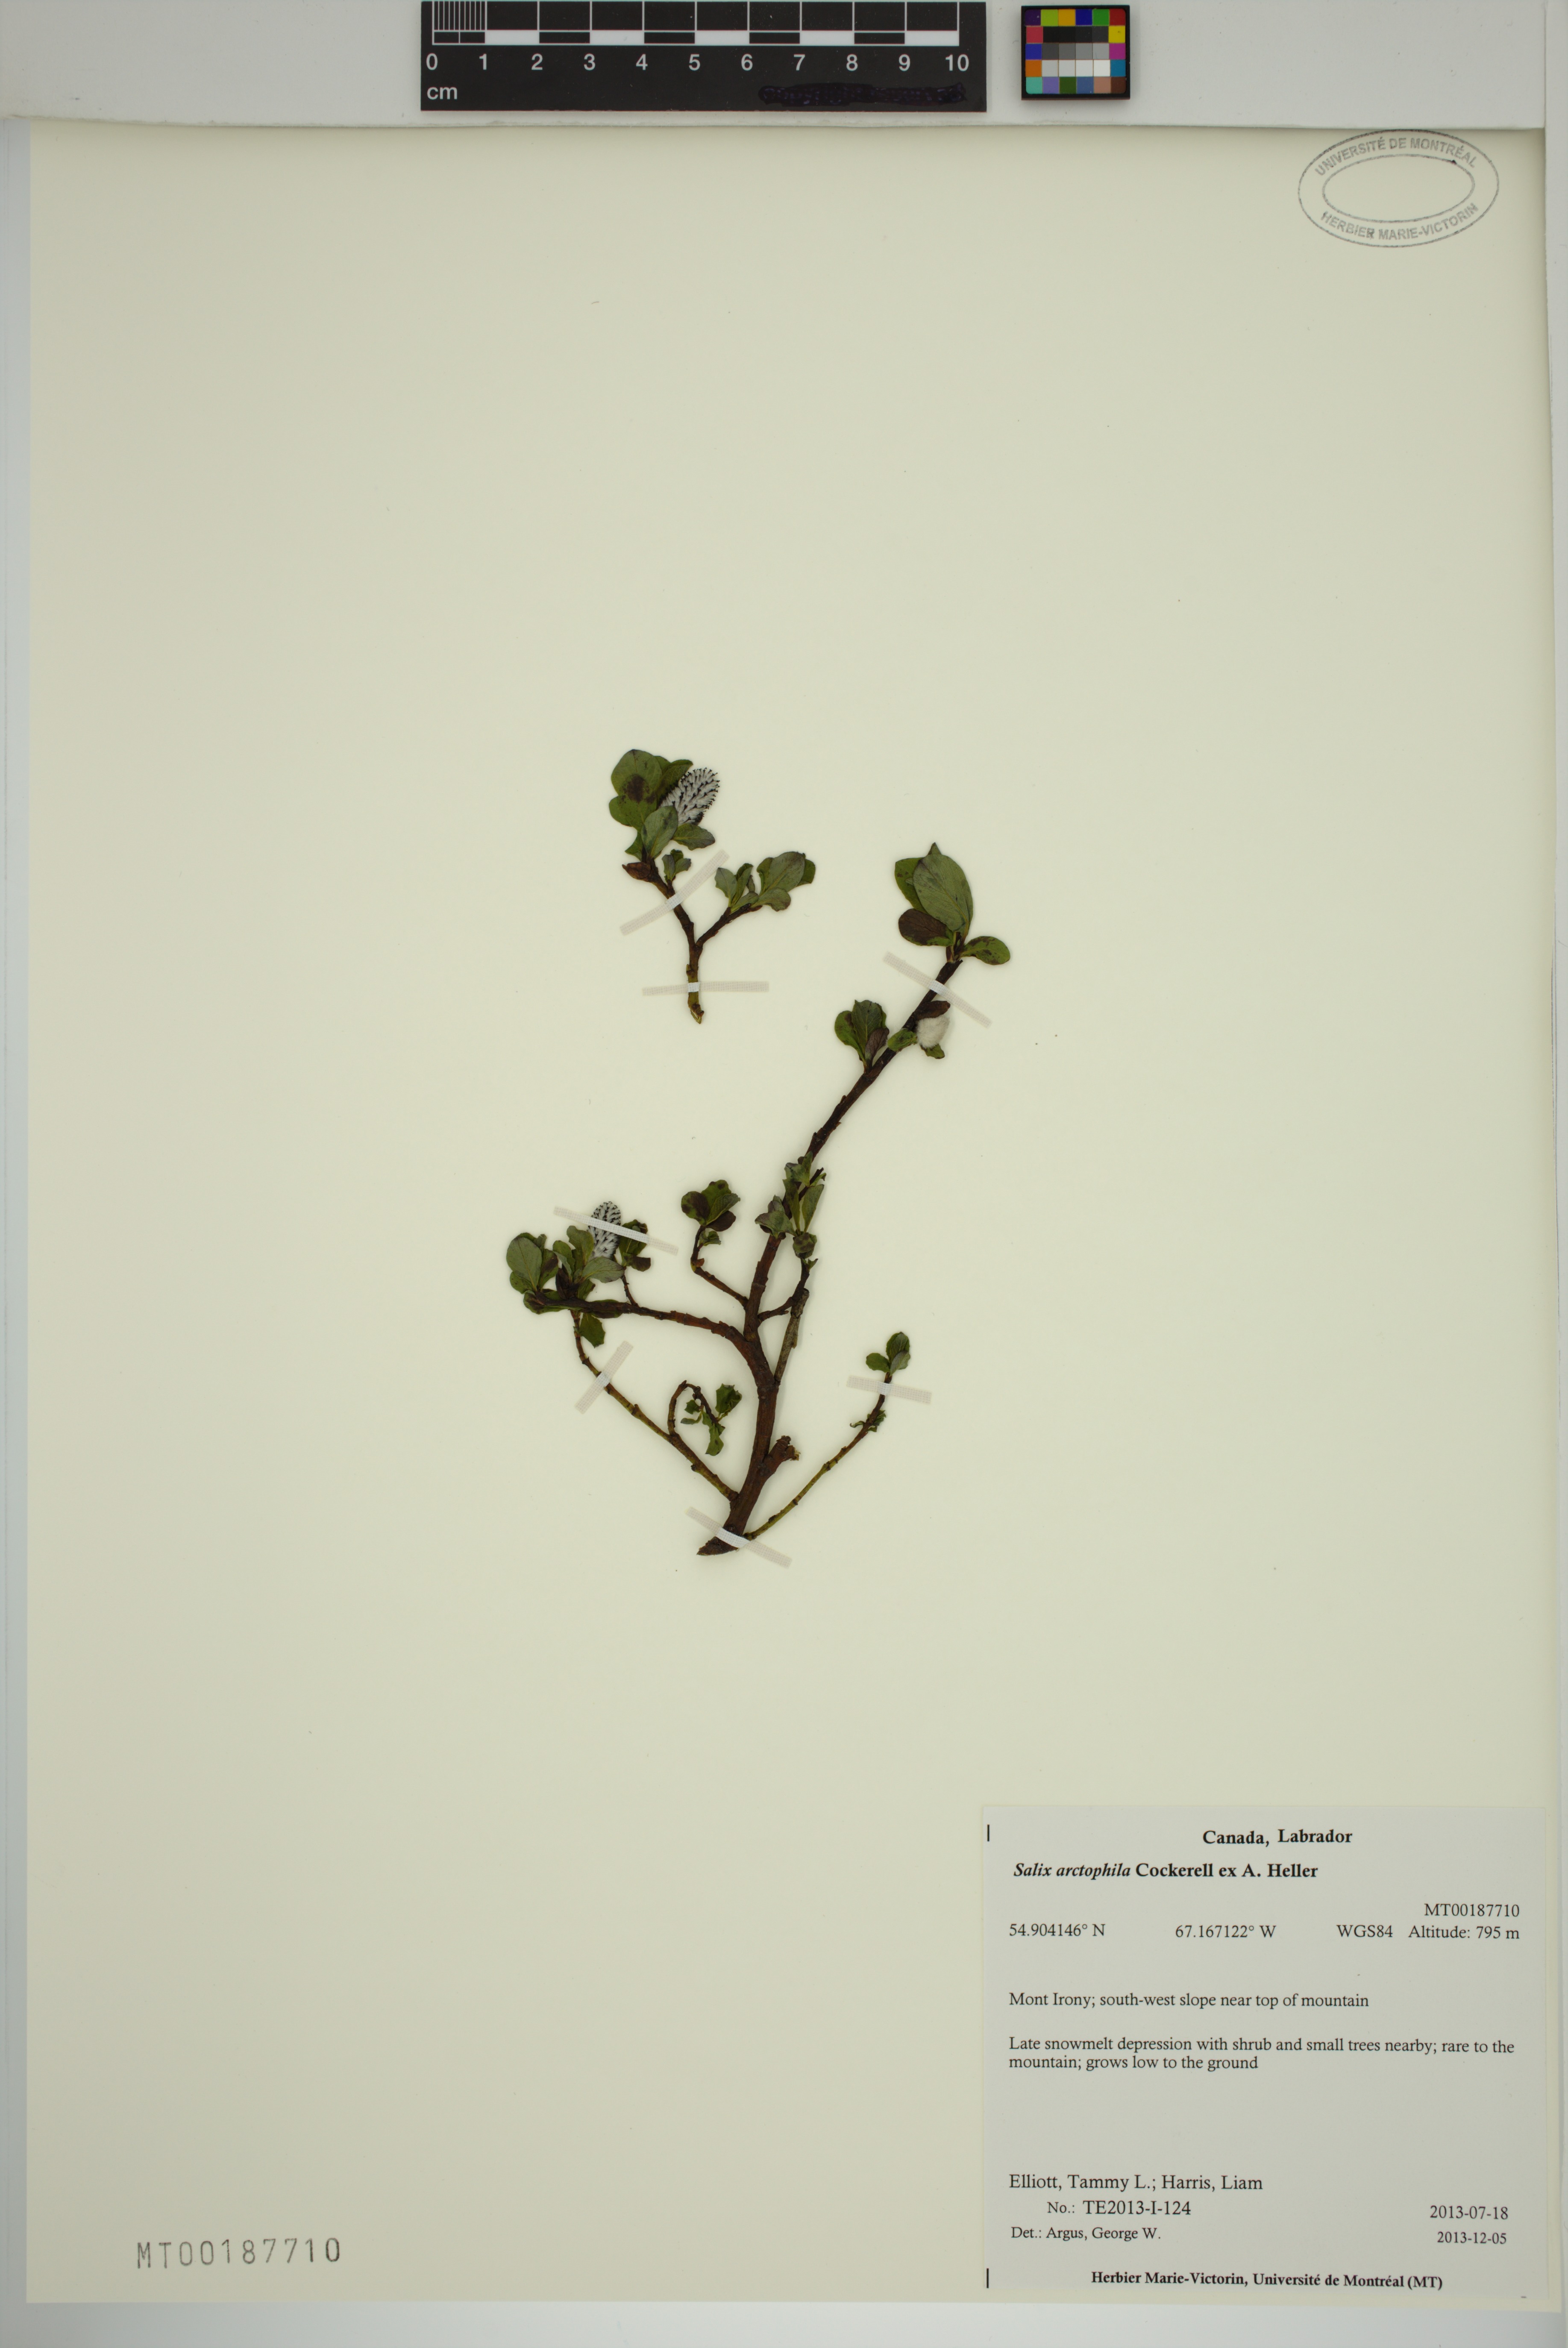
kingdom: Plantae
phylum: Tracheophyta
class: Magnoliopsida
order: Malpighiales
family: Salicaceae
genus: Salix
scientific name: Salix arctophila
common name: Greenland willow
